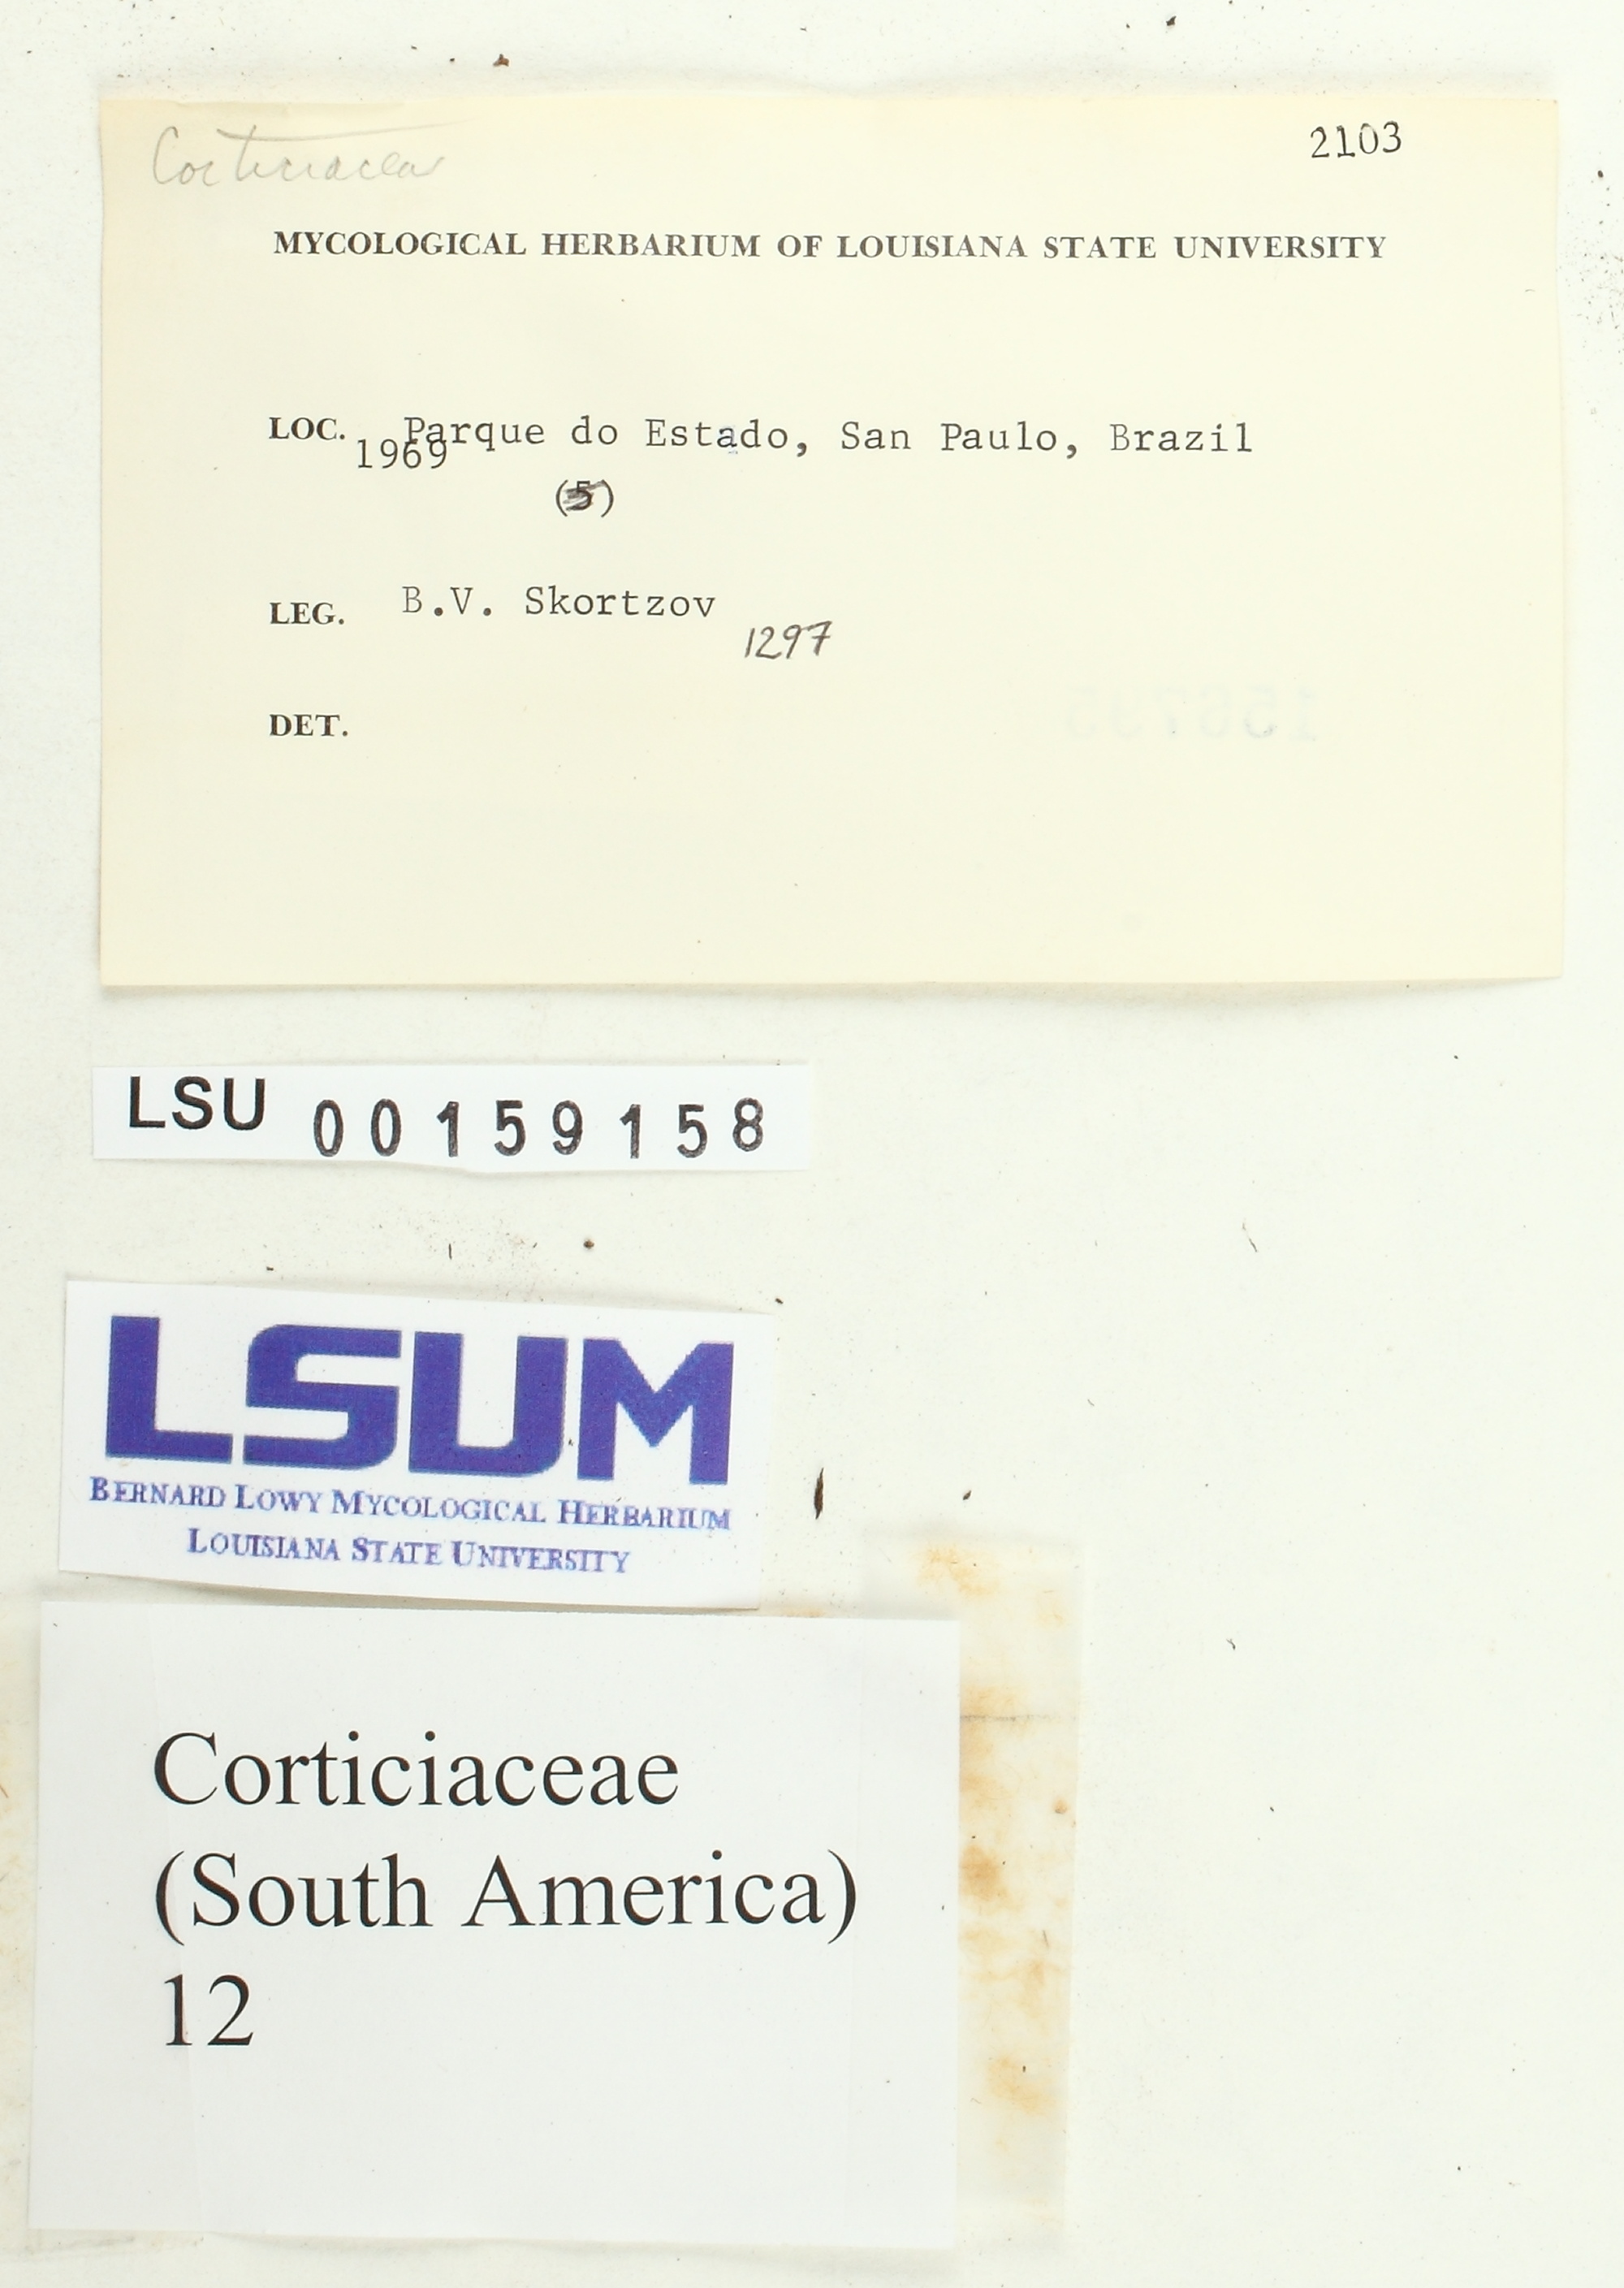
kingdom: Fungi
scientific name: Fungi
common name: Fungi
